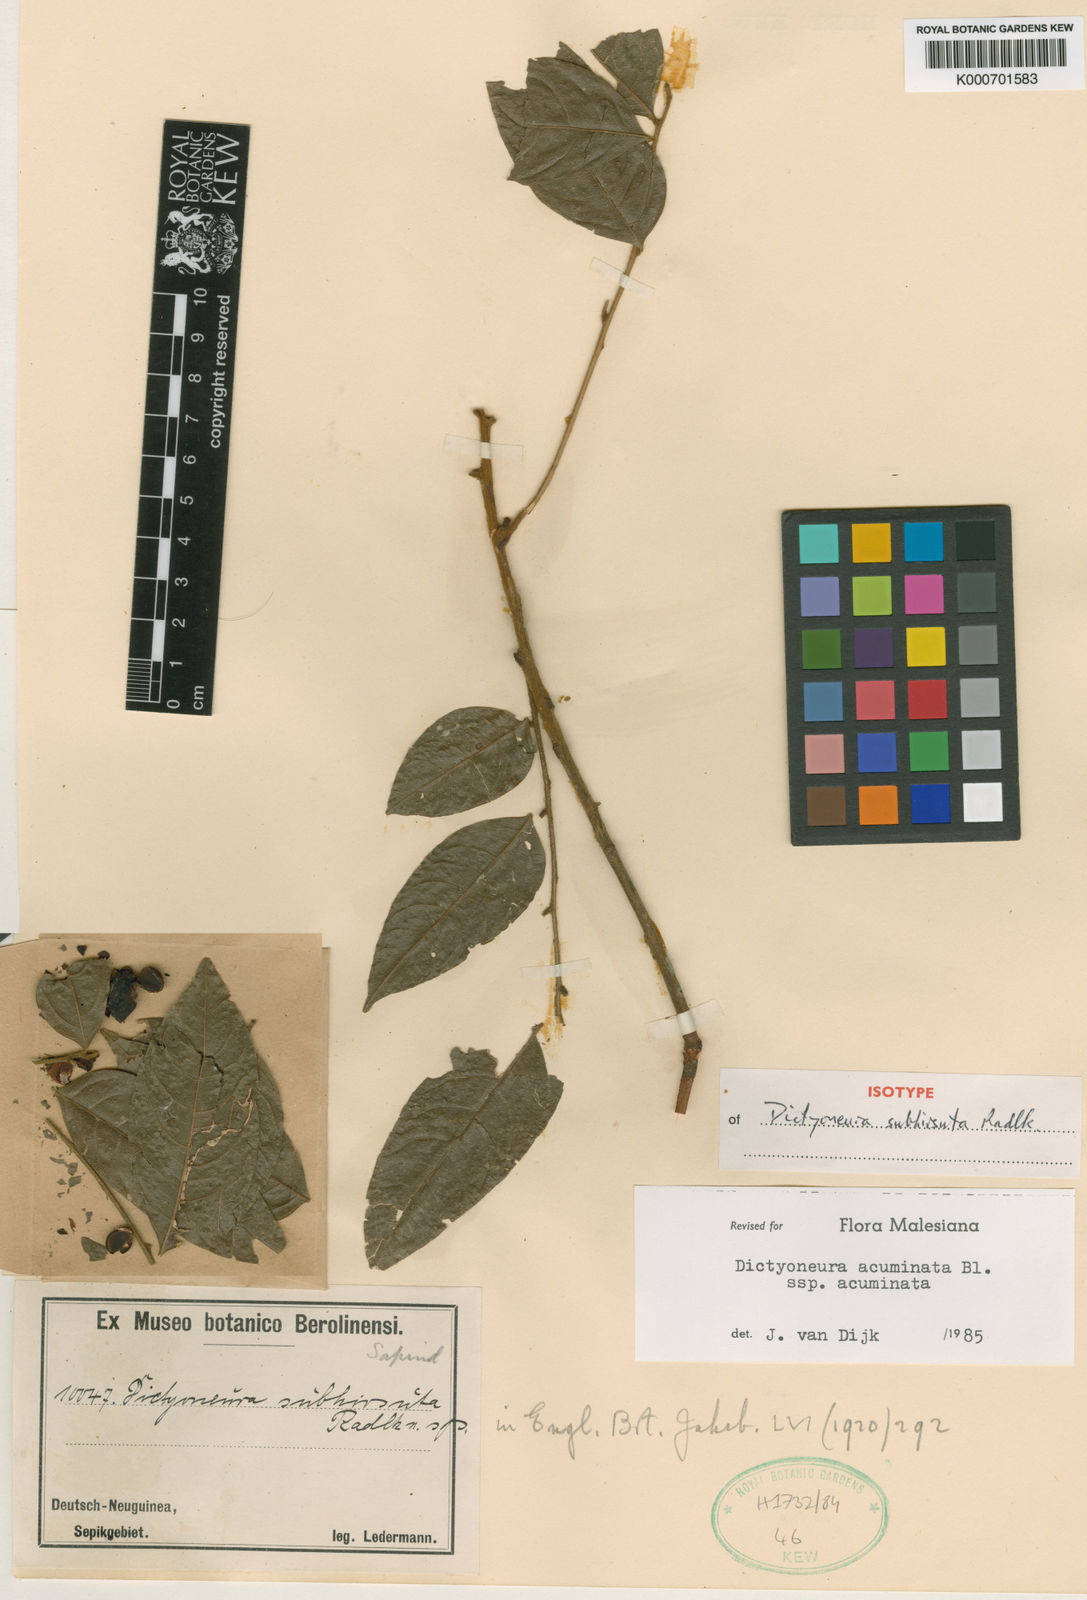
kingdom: Plantae
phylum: Tracheophyta
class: Magnoliopsida
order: Sapindales
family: Sapindaceae
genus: Dictyoneura
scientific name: Dictyoneura acuminata
